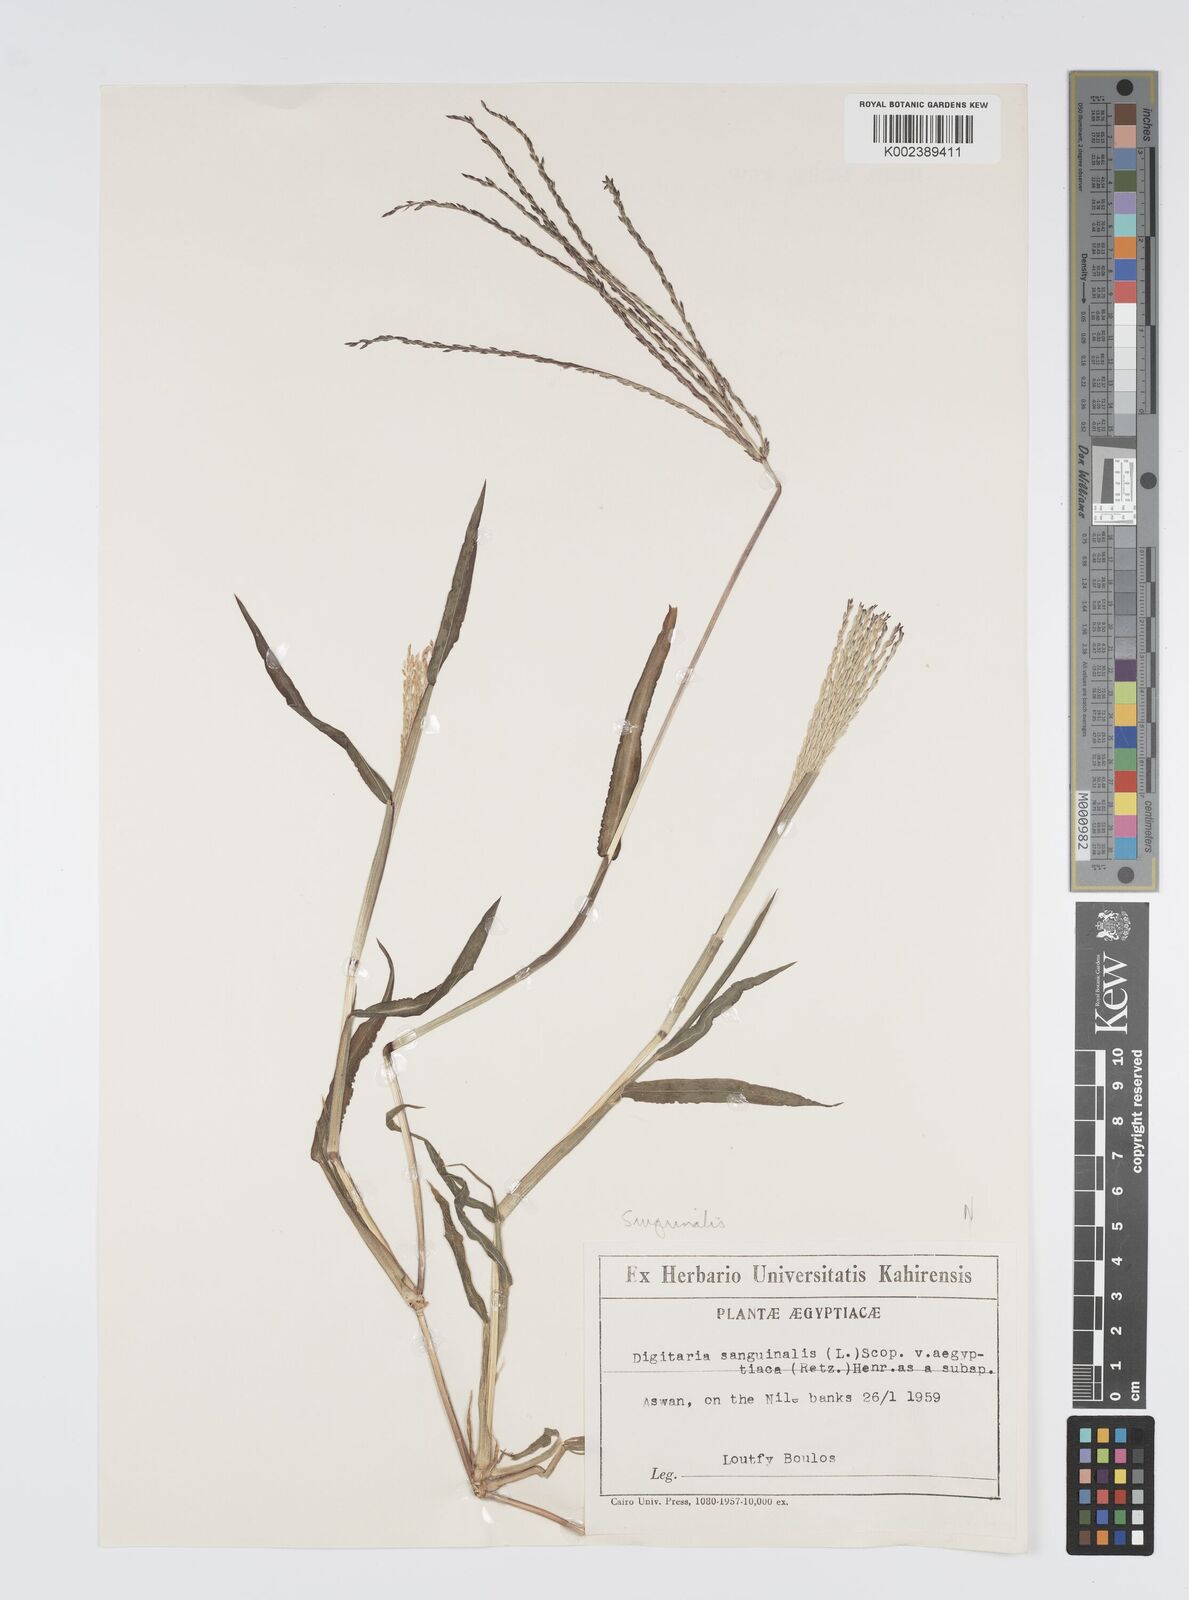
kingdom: Plantae
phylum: Tracheophyta
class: Liliopsida
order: Poales
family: Poaceae
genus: Digitaria
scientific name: Digitaria sanguinalis
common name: Hairy crabgrass
